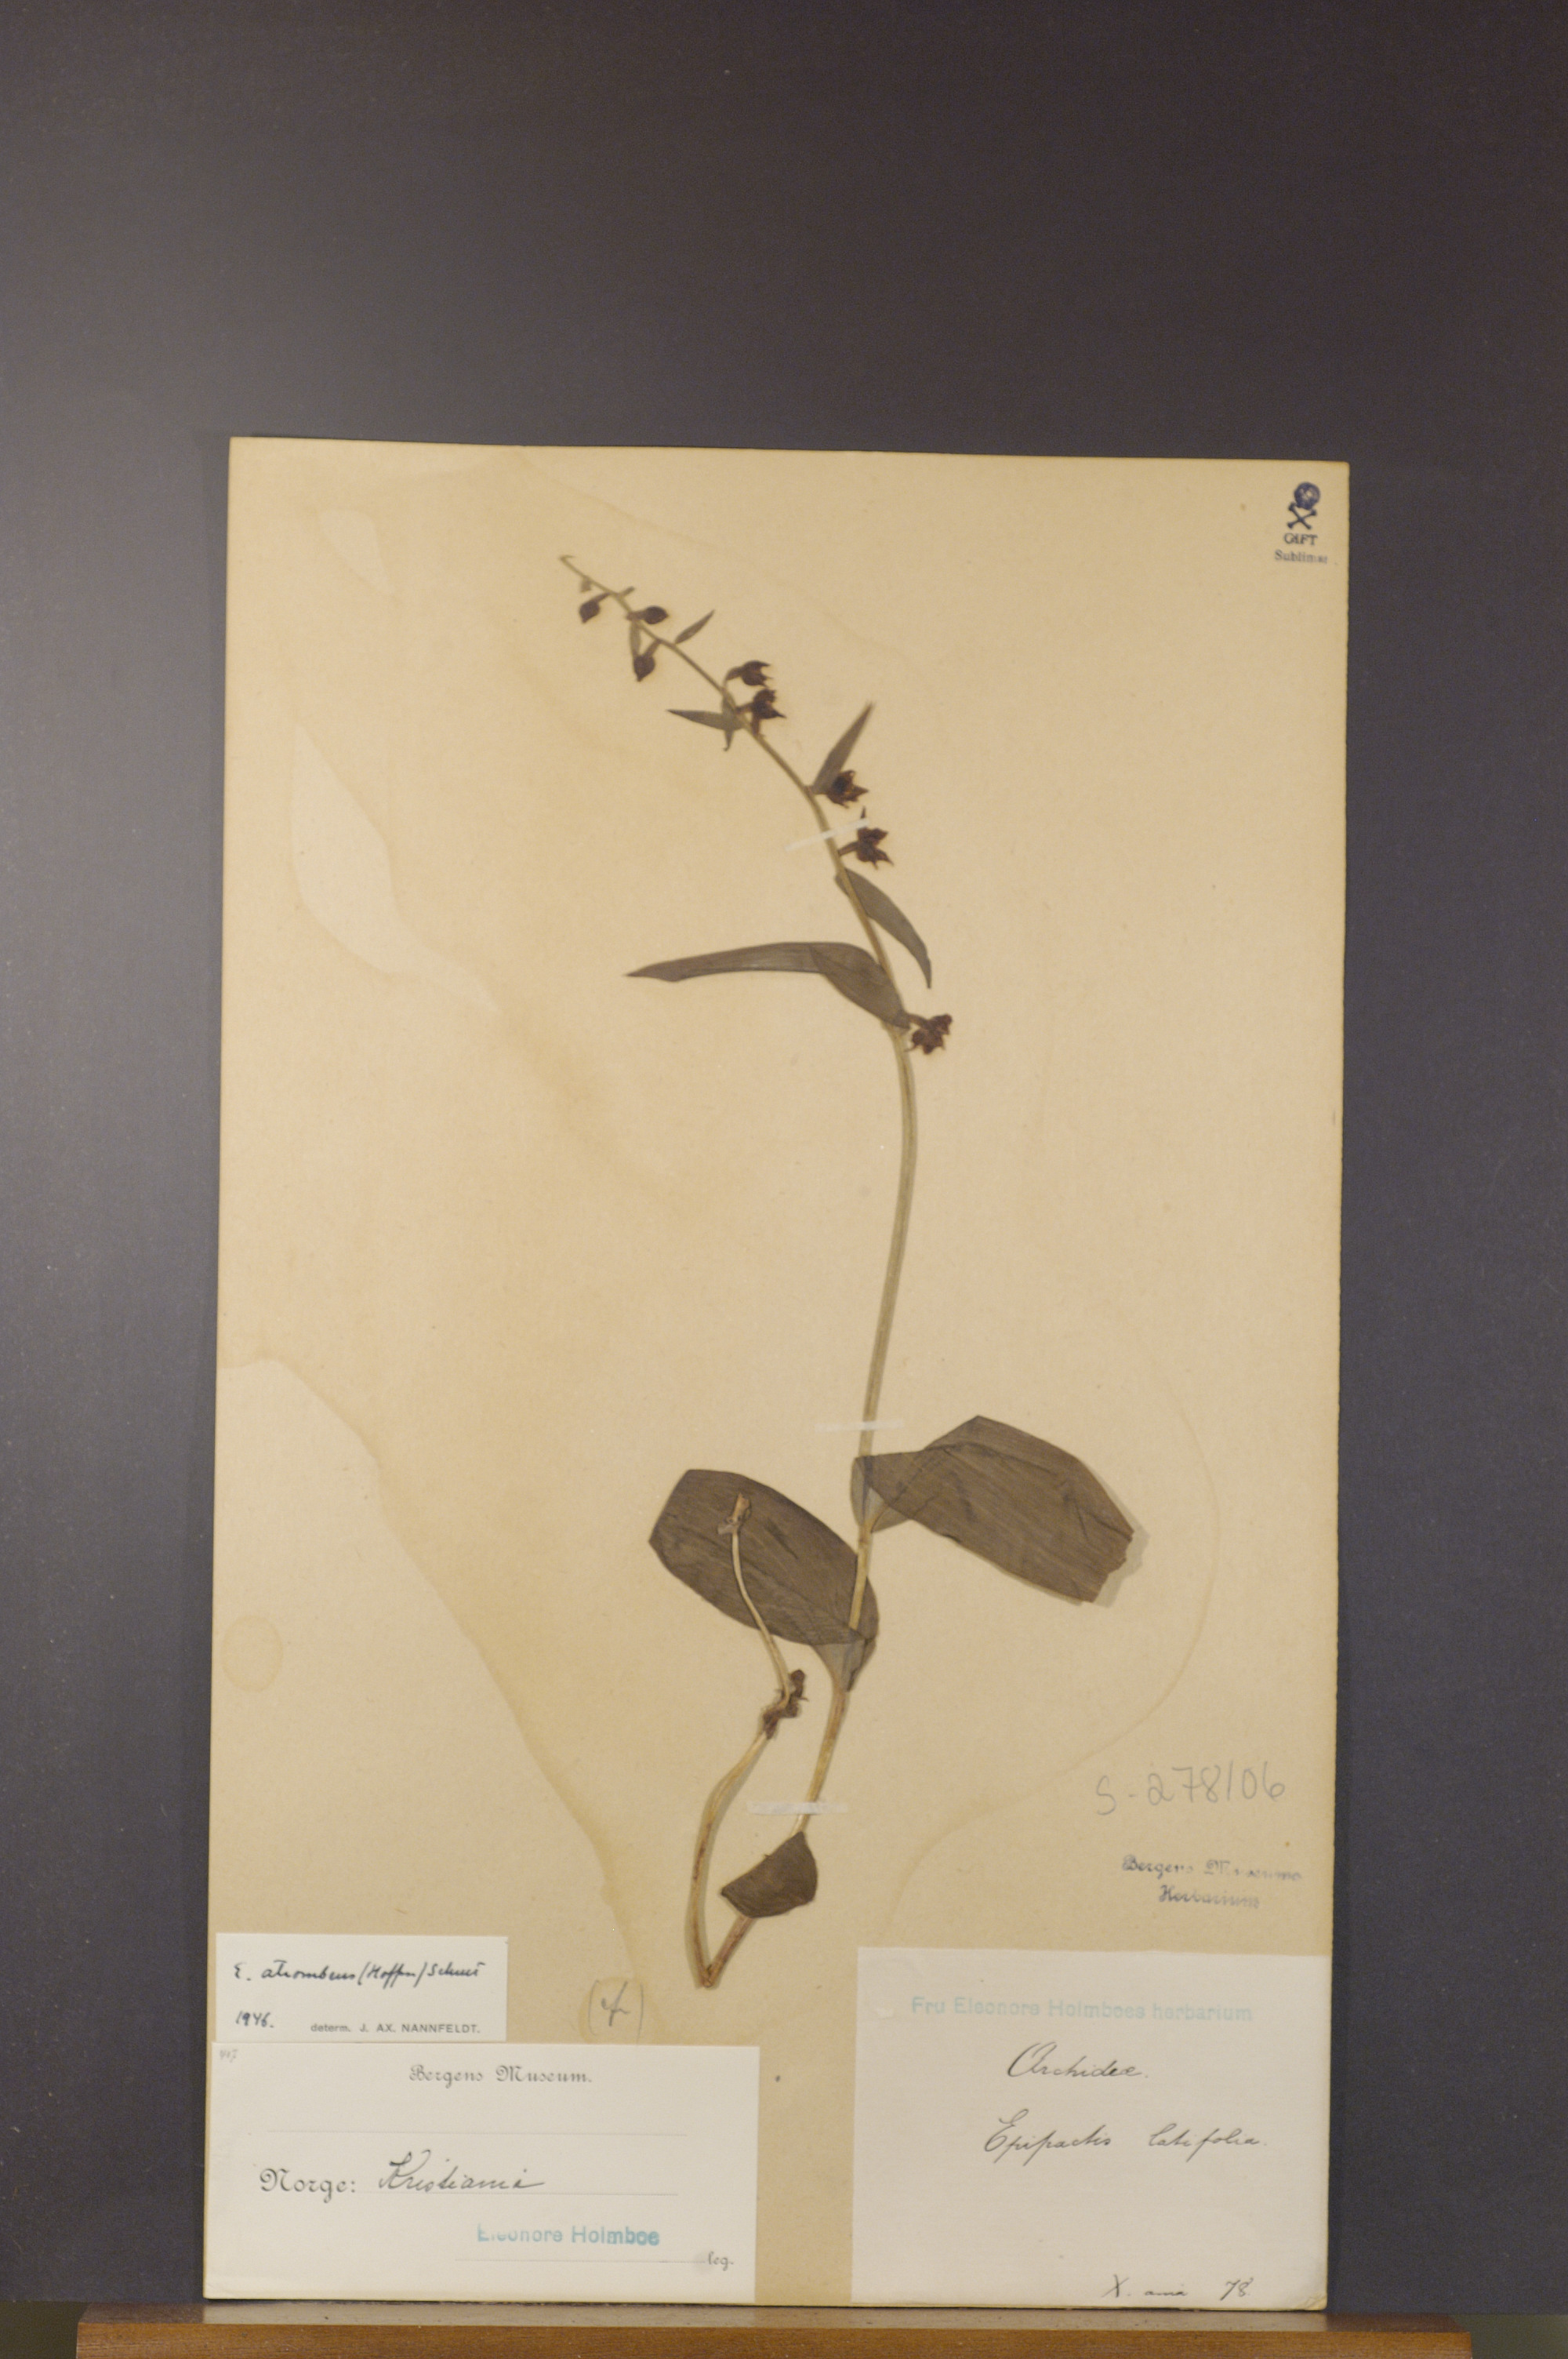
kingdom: Plantae
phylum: Tracheophyta
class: Liliopsida
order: Asparagales
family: Orchidaceae
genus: Epipactis
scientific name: Epipactis atrorubens
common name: Dark-red helleborine
